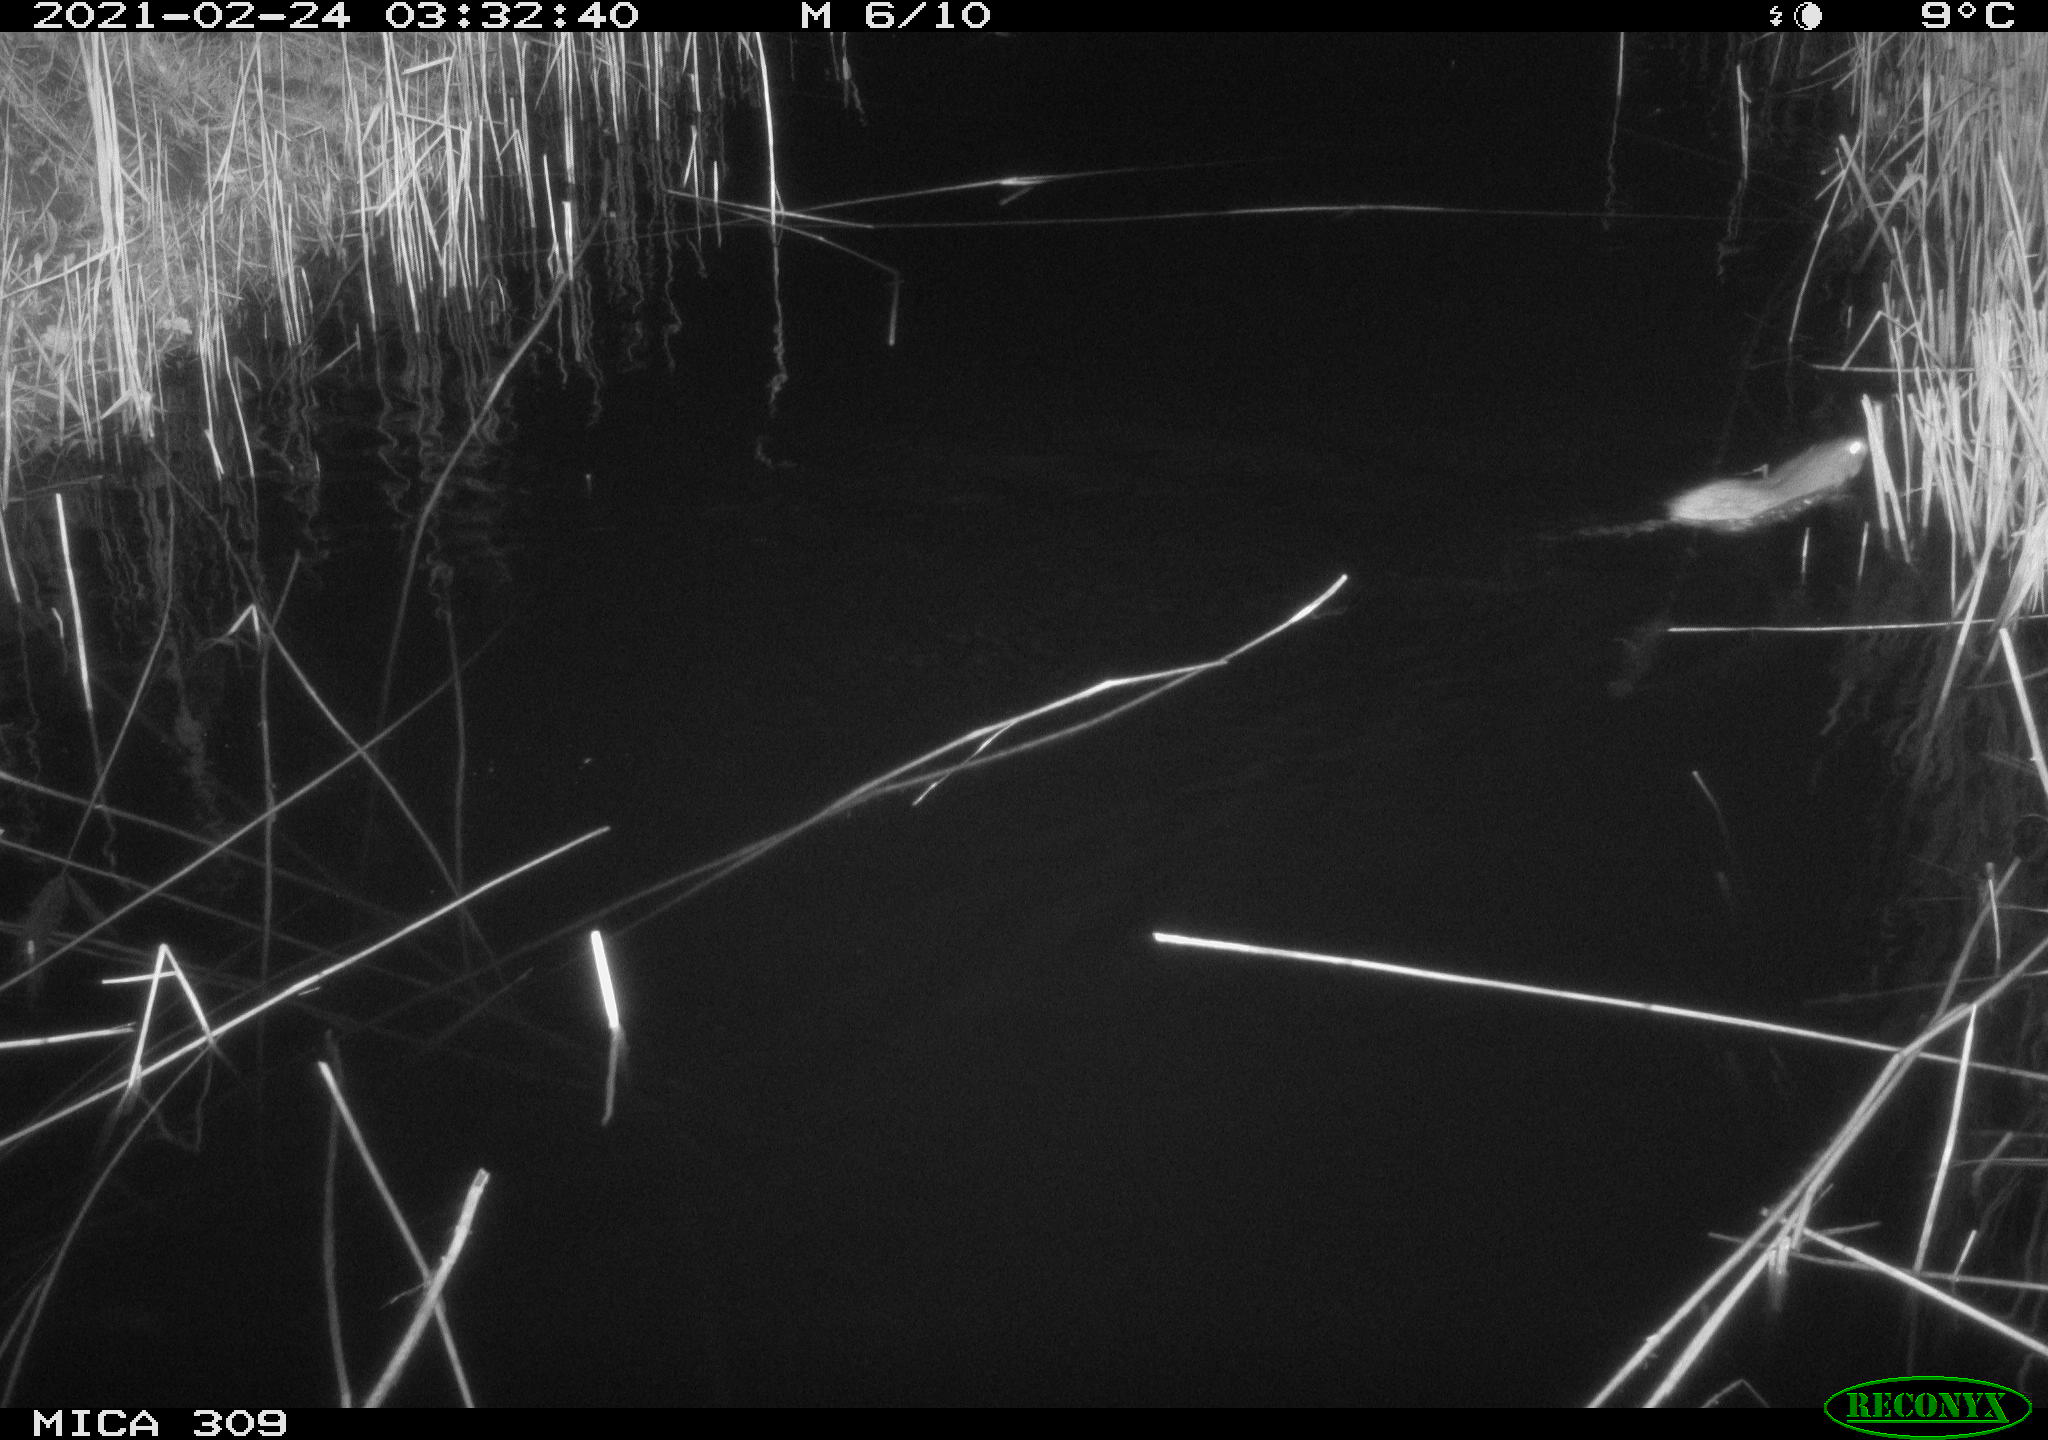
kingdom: Animalia
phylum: Chordata
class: Mammalia
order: Rodentia
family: Muridae
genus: Rattus
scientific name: Rattus norvegicus
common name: Brown rat
